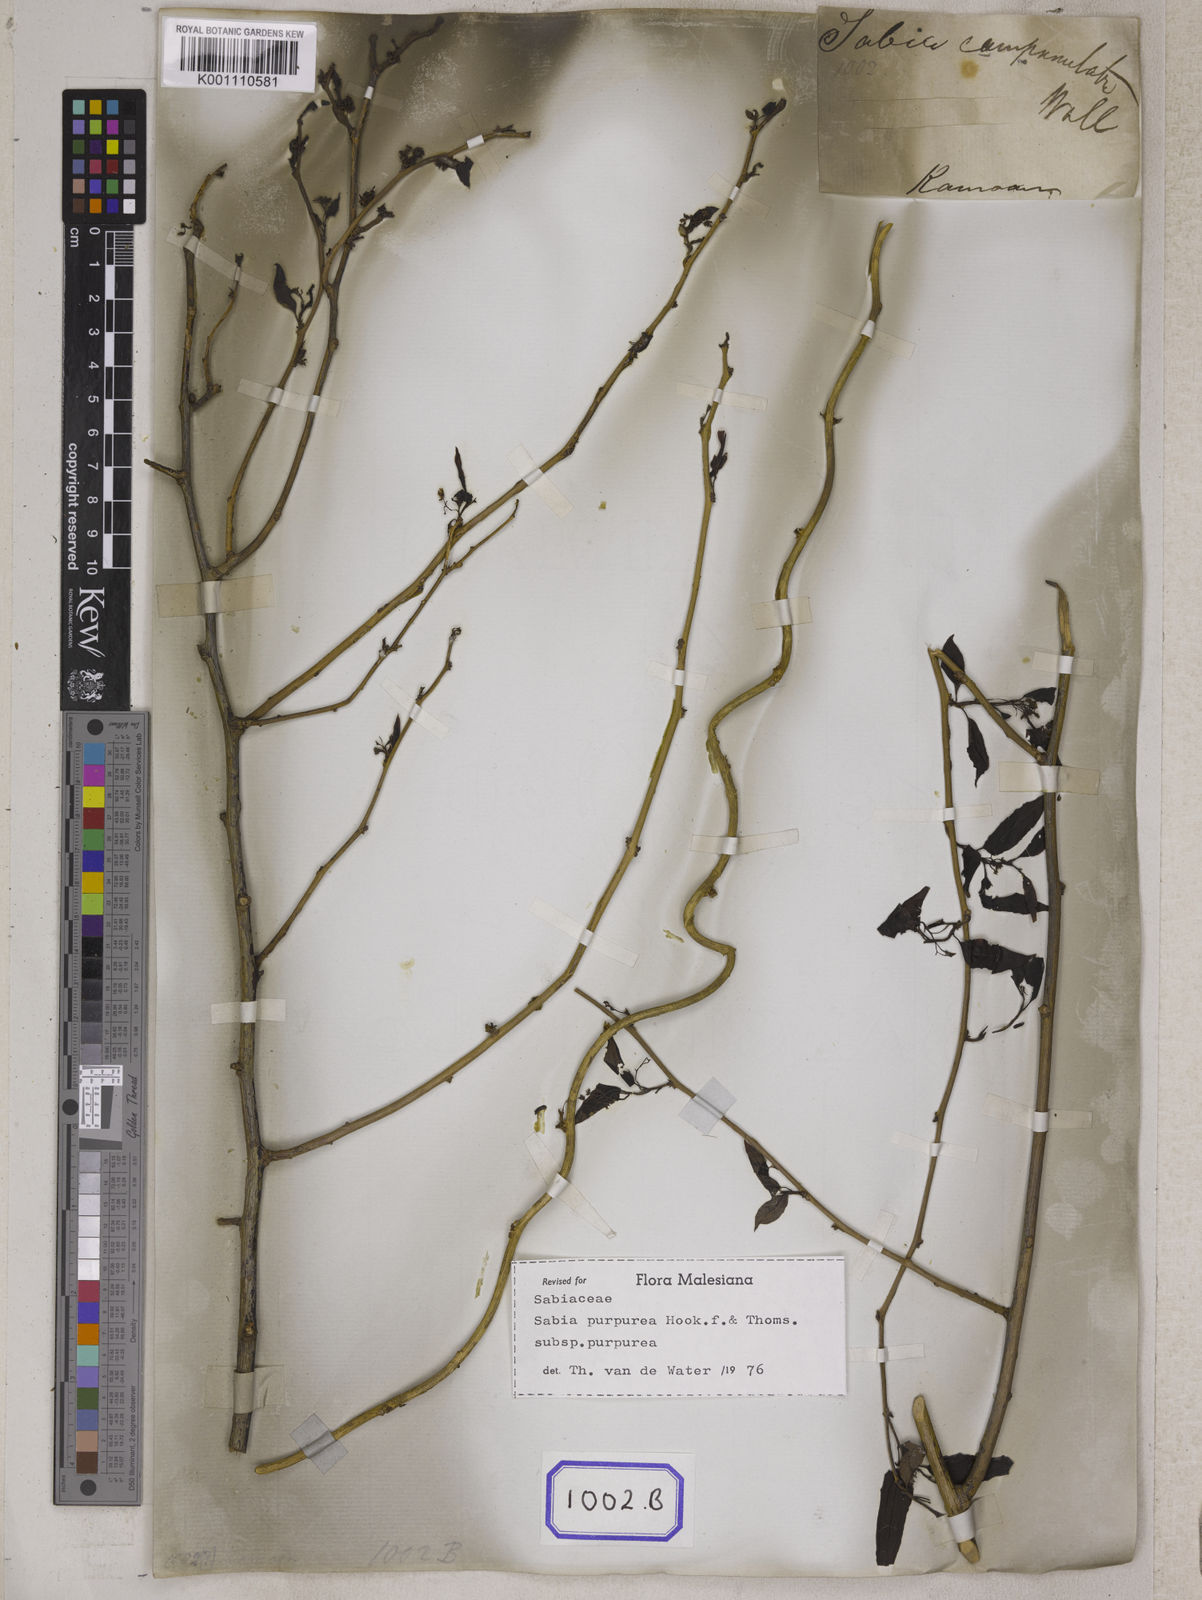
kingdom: Plantae
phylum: Tracheophyta
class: Magnoliopsida
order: Proteales
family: Sabiaceae
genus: Sabia
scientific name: Sabia campanulata
